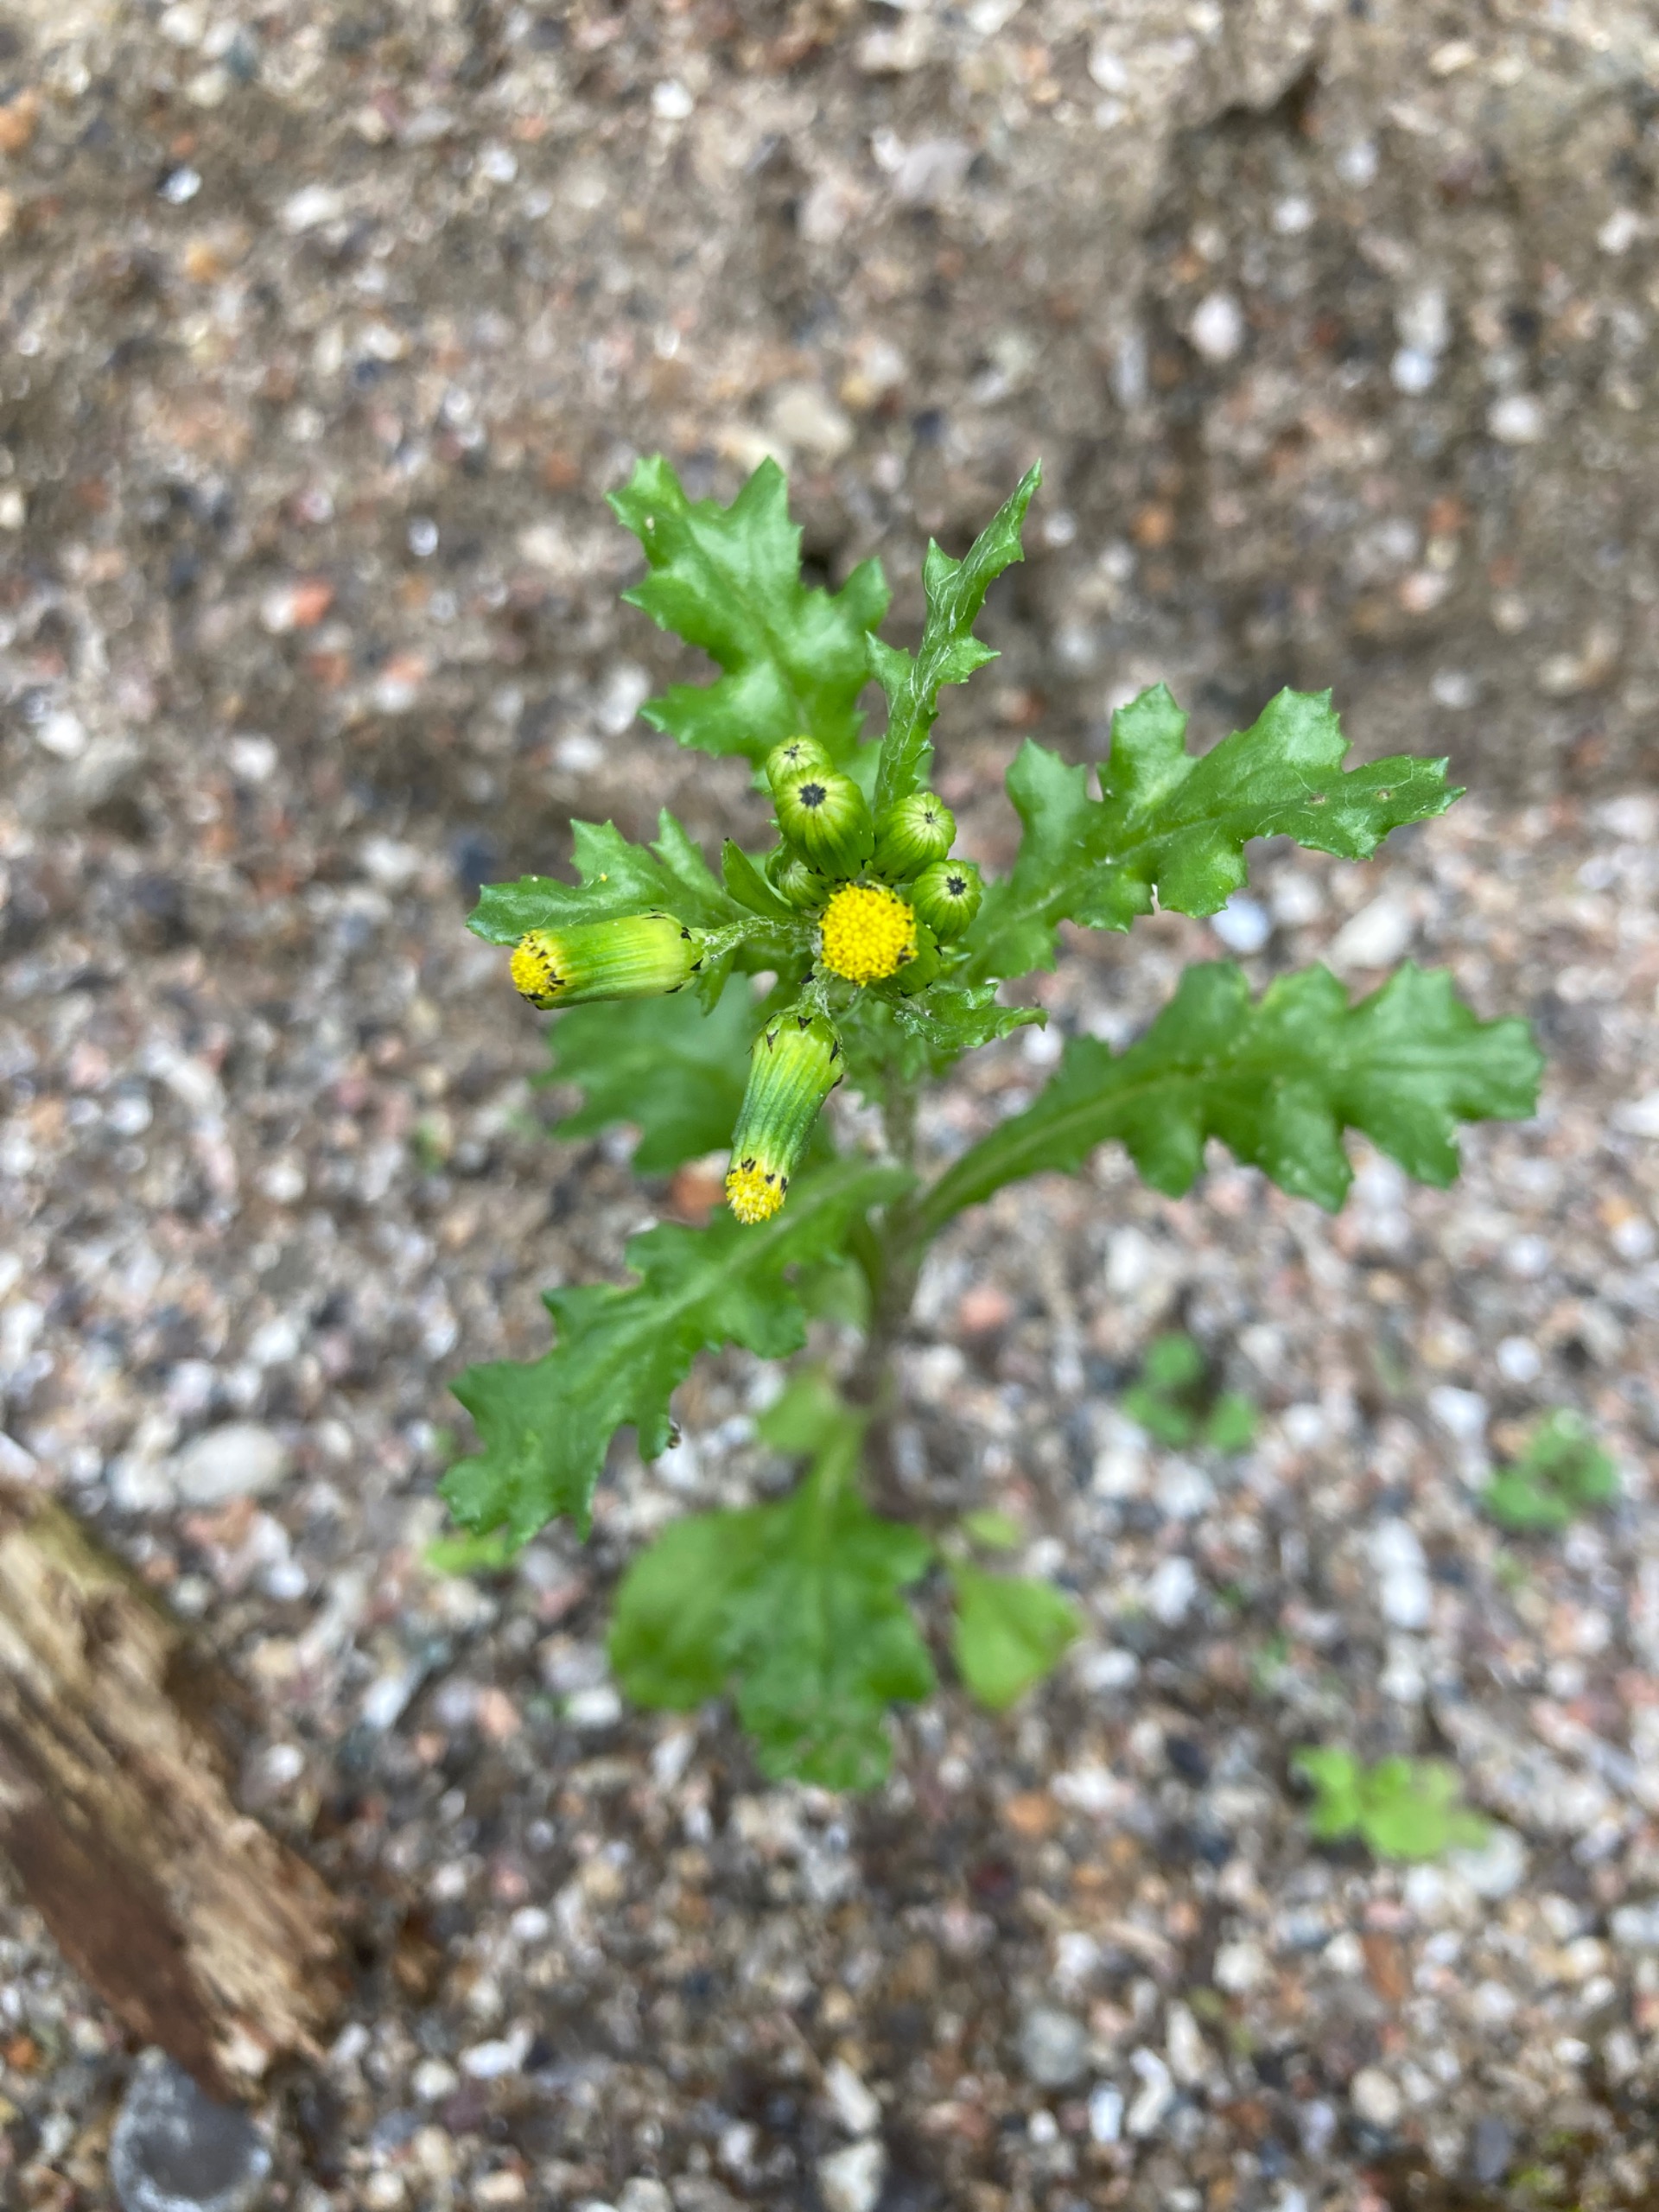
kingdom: Plantae
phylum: Tracheophyta
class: Magnoliopsida
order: Asterales
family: Asteraceae
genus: Senecio
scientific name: Senecio vulgaris
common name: Almindelig brandbæger
